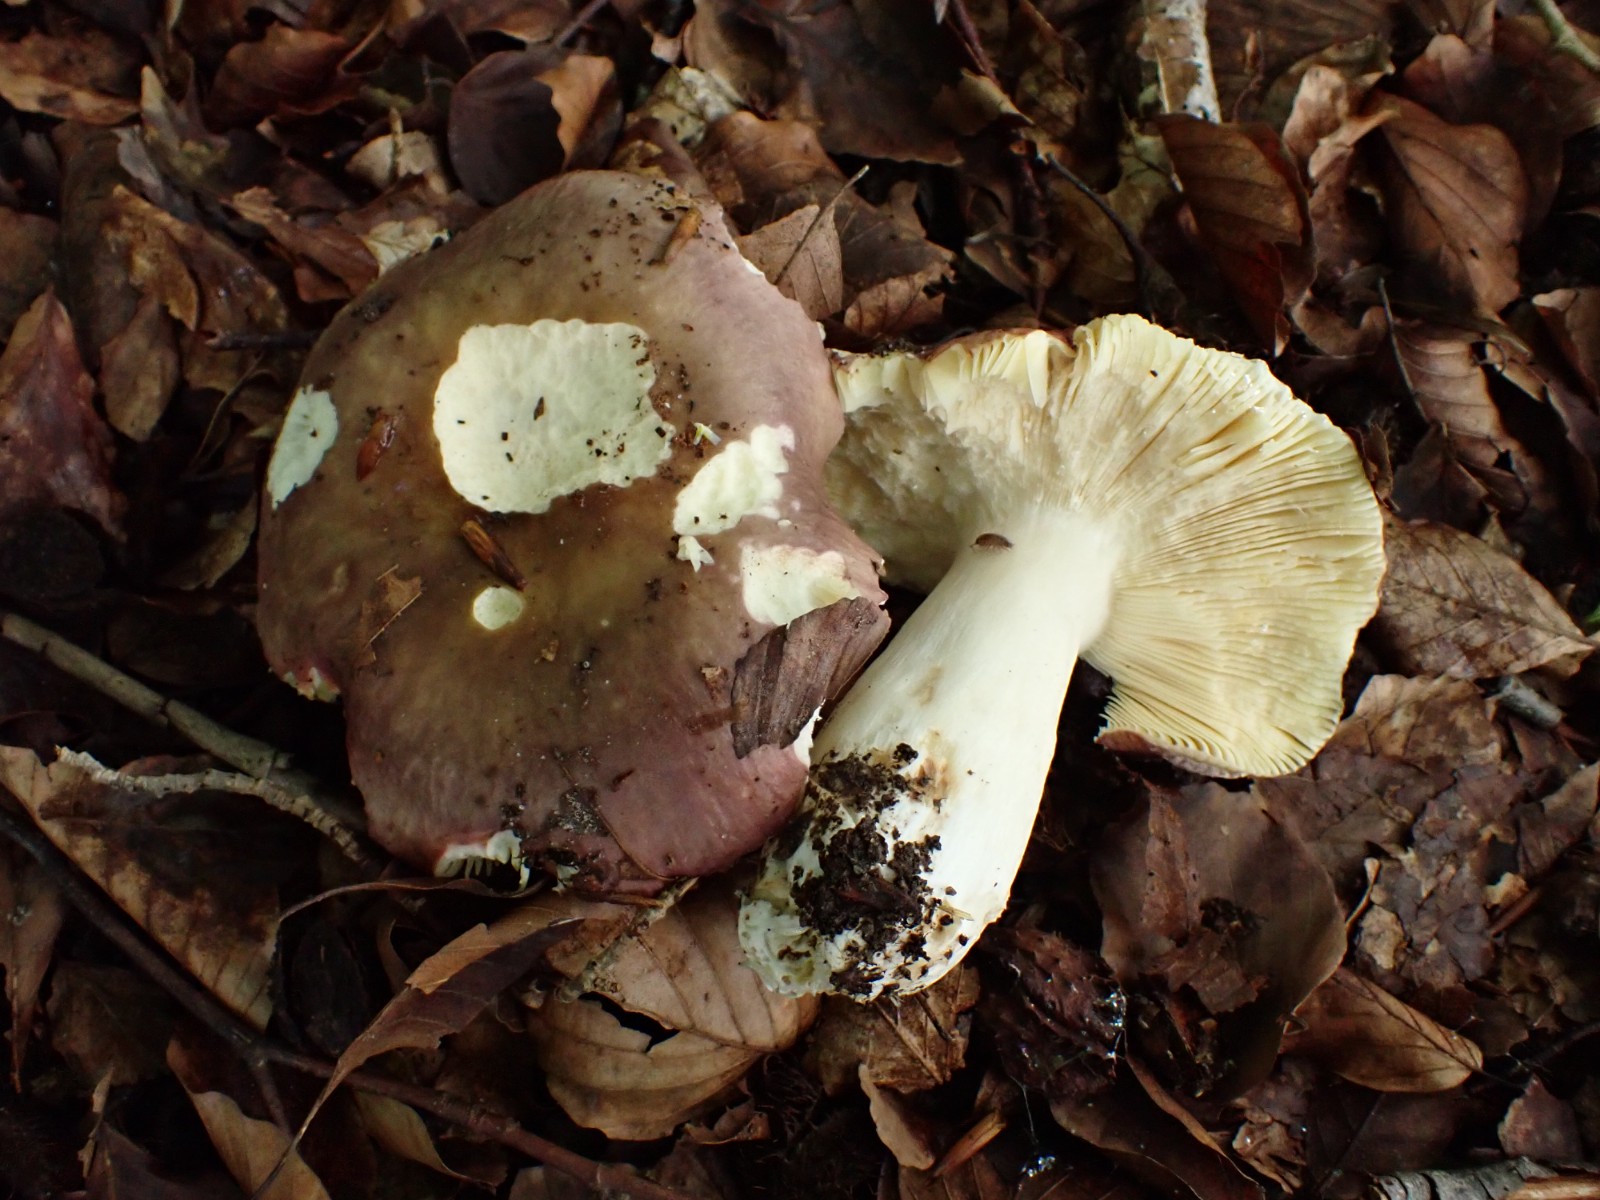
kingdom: Fungi
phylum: Basidiomycota
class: Agaricomycetes
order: Russulales
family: Russulaceae
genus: Russula
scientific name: Russula romellii
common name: romells skørhat
